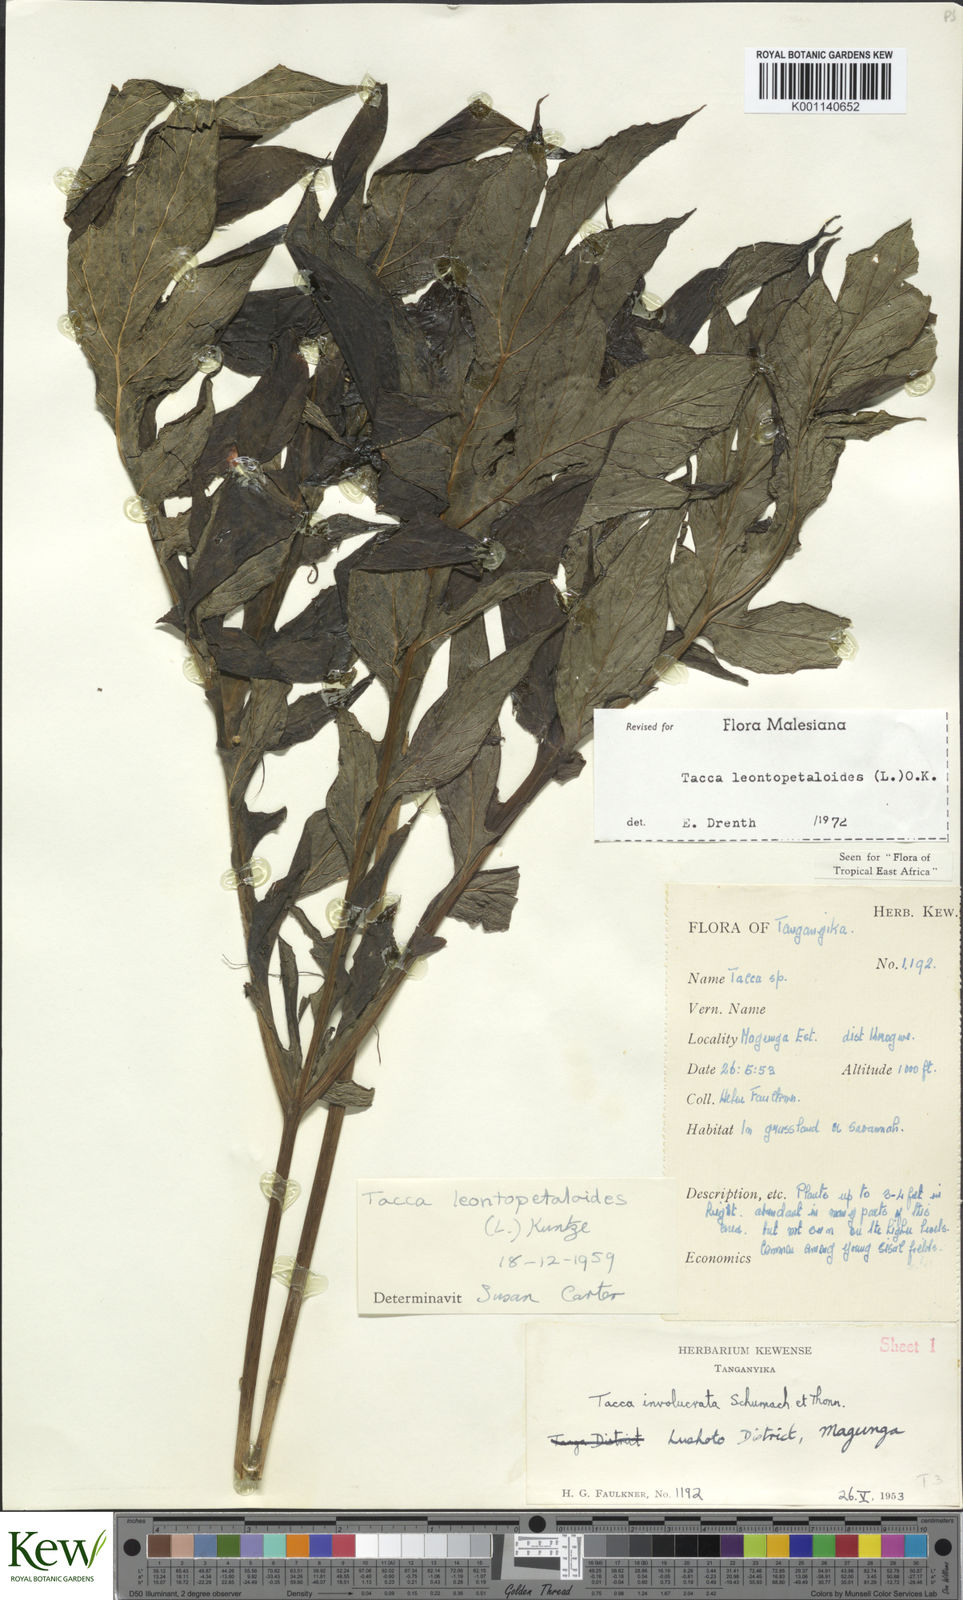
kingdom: Plantae
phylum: Tracheophyta
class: Liliopsida
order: Dioscoreales
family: Dioscoreaceae
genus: Tacca
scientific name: Tacca leontopetaloides
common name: Arrowroot
